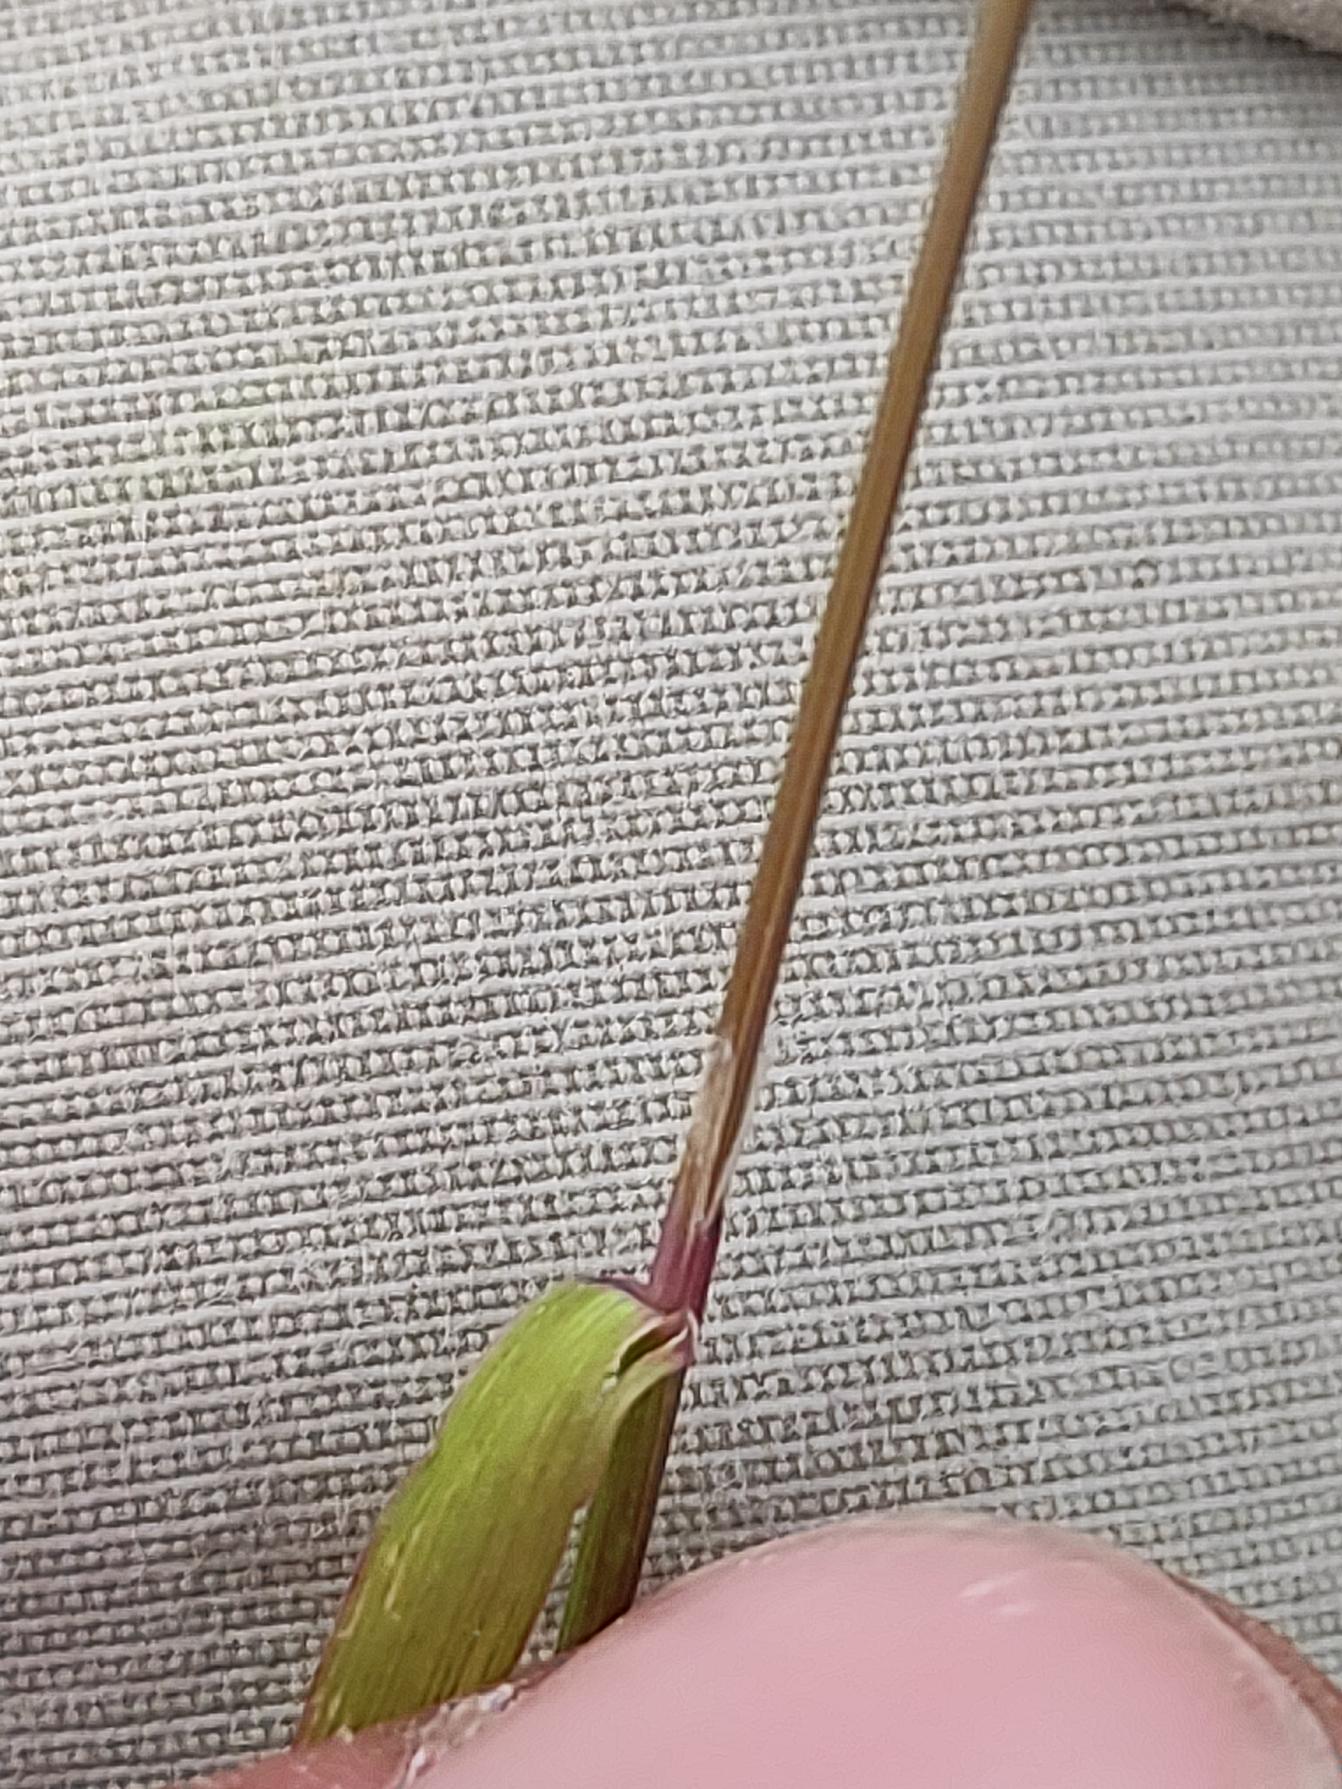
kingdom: Plantae
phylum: Tracheophyta
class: Liliopsida
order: Poales
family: Poaceae
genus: Agrostis
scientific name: Agrostis stolonifera
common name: Kryb-hvene
